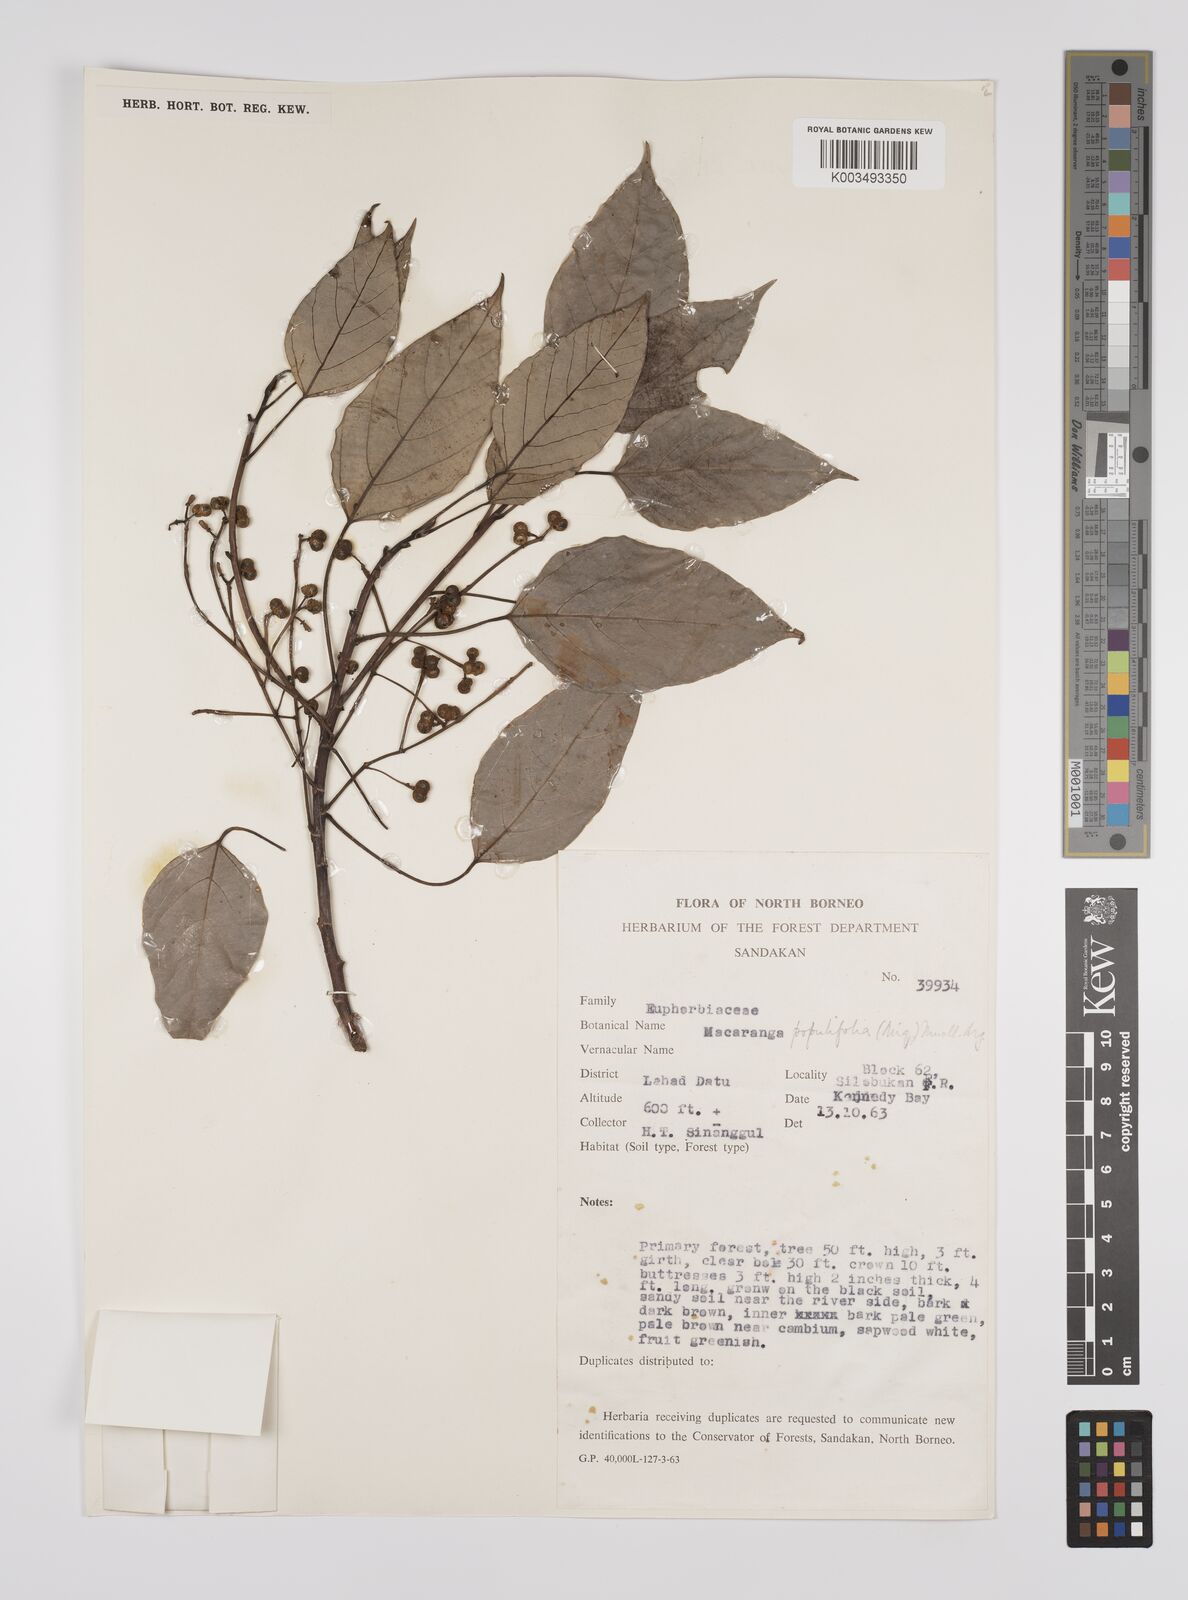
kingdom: Plantae
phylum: Tracheophyta
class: Magnoliopsida
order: Malpighiales
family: Euphorbiaceae
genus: Macaranga
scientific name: Macaranga conifera
